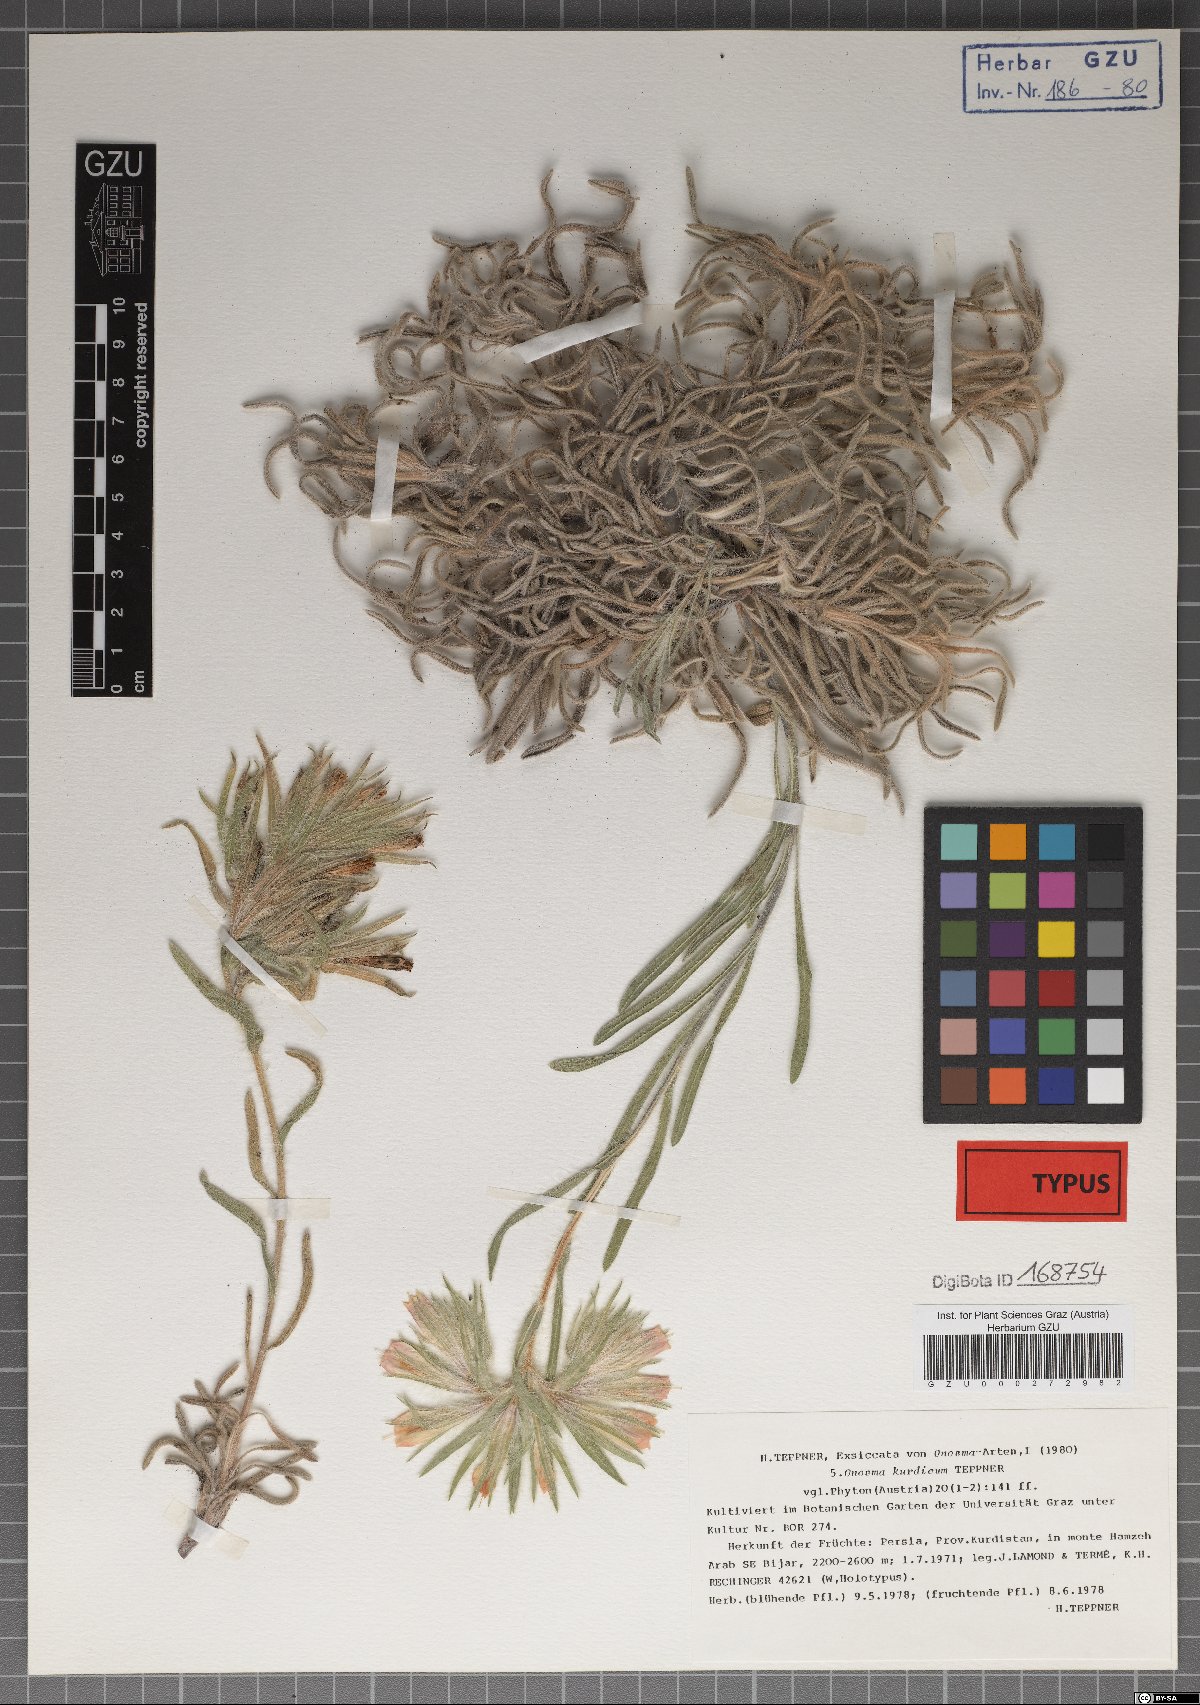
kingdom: Plantae
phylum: Tracheophyta
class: Magnoliopsida
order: Boraginales
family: Boraginaceae
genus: Onosma
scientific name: Onosma kurdica
